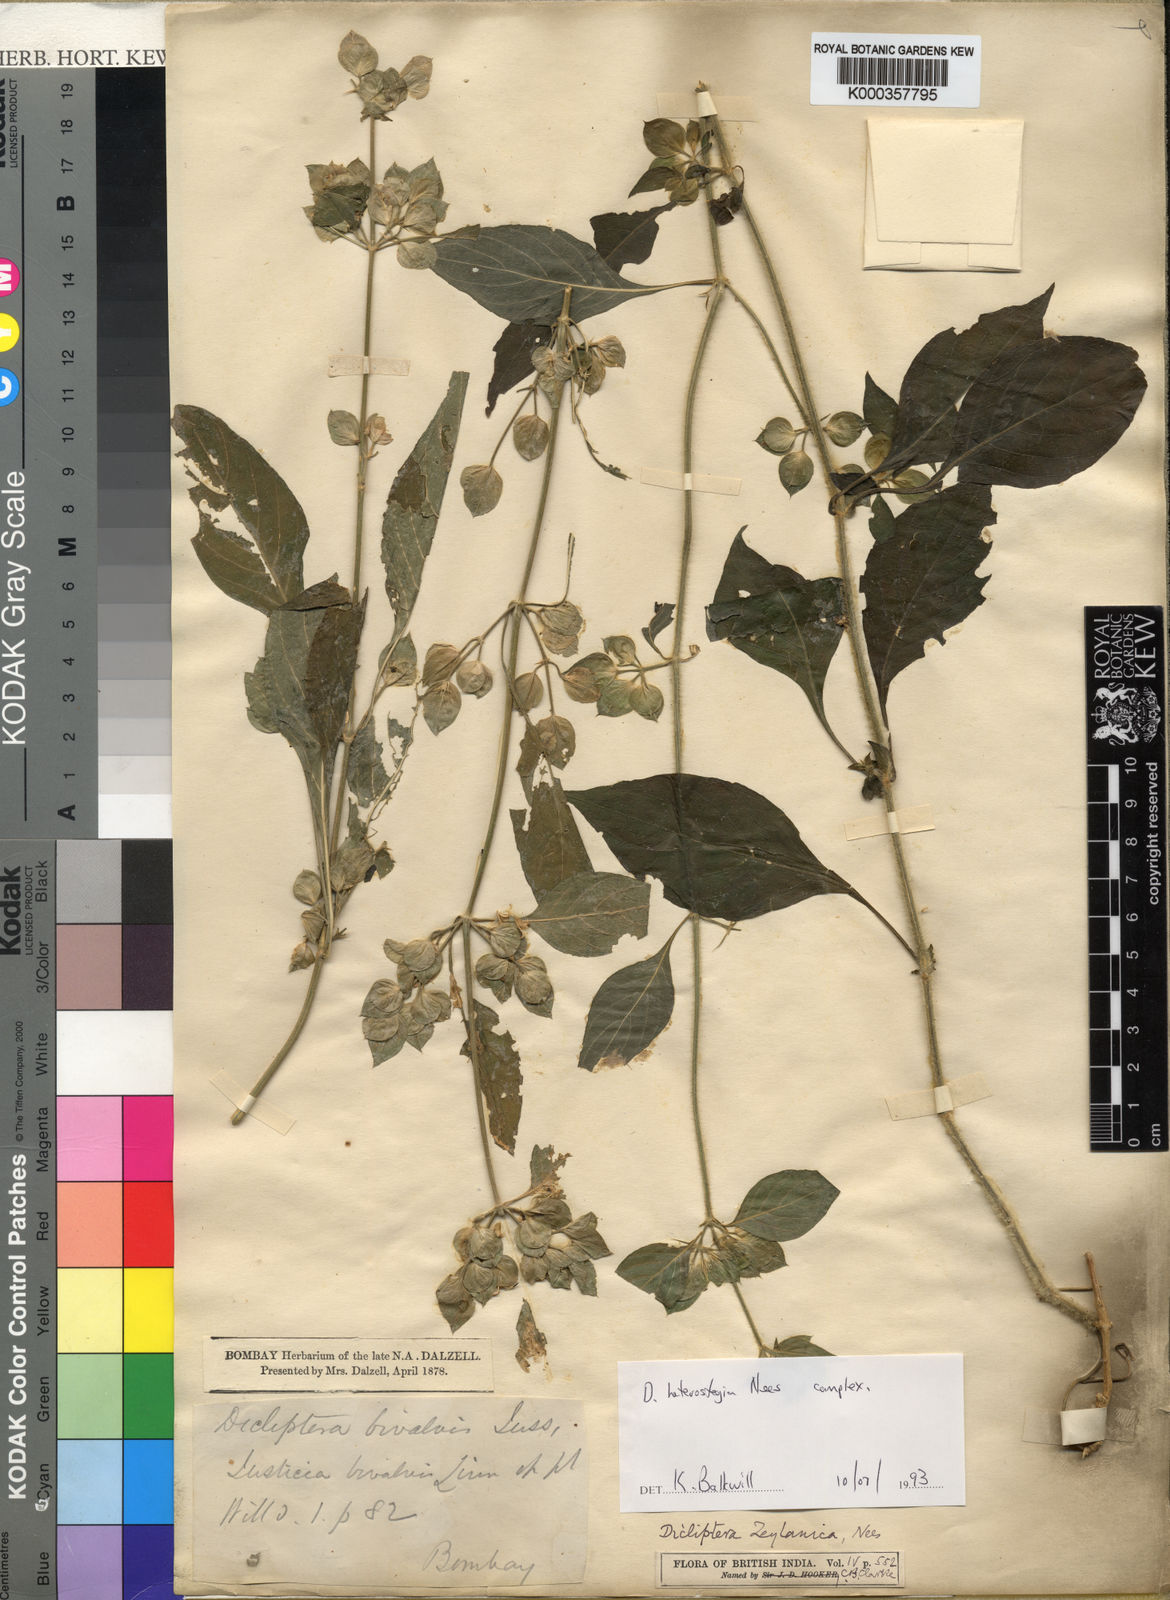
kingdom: Plantae
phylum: Tracheophyta
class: Magnoliopsida
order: Lamiales
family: Acanthaceae
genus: Dicliptera
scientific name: Dicliptera heterostegia
